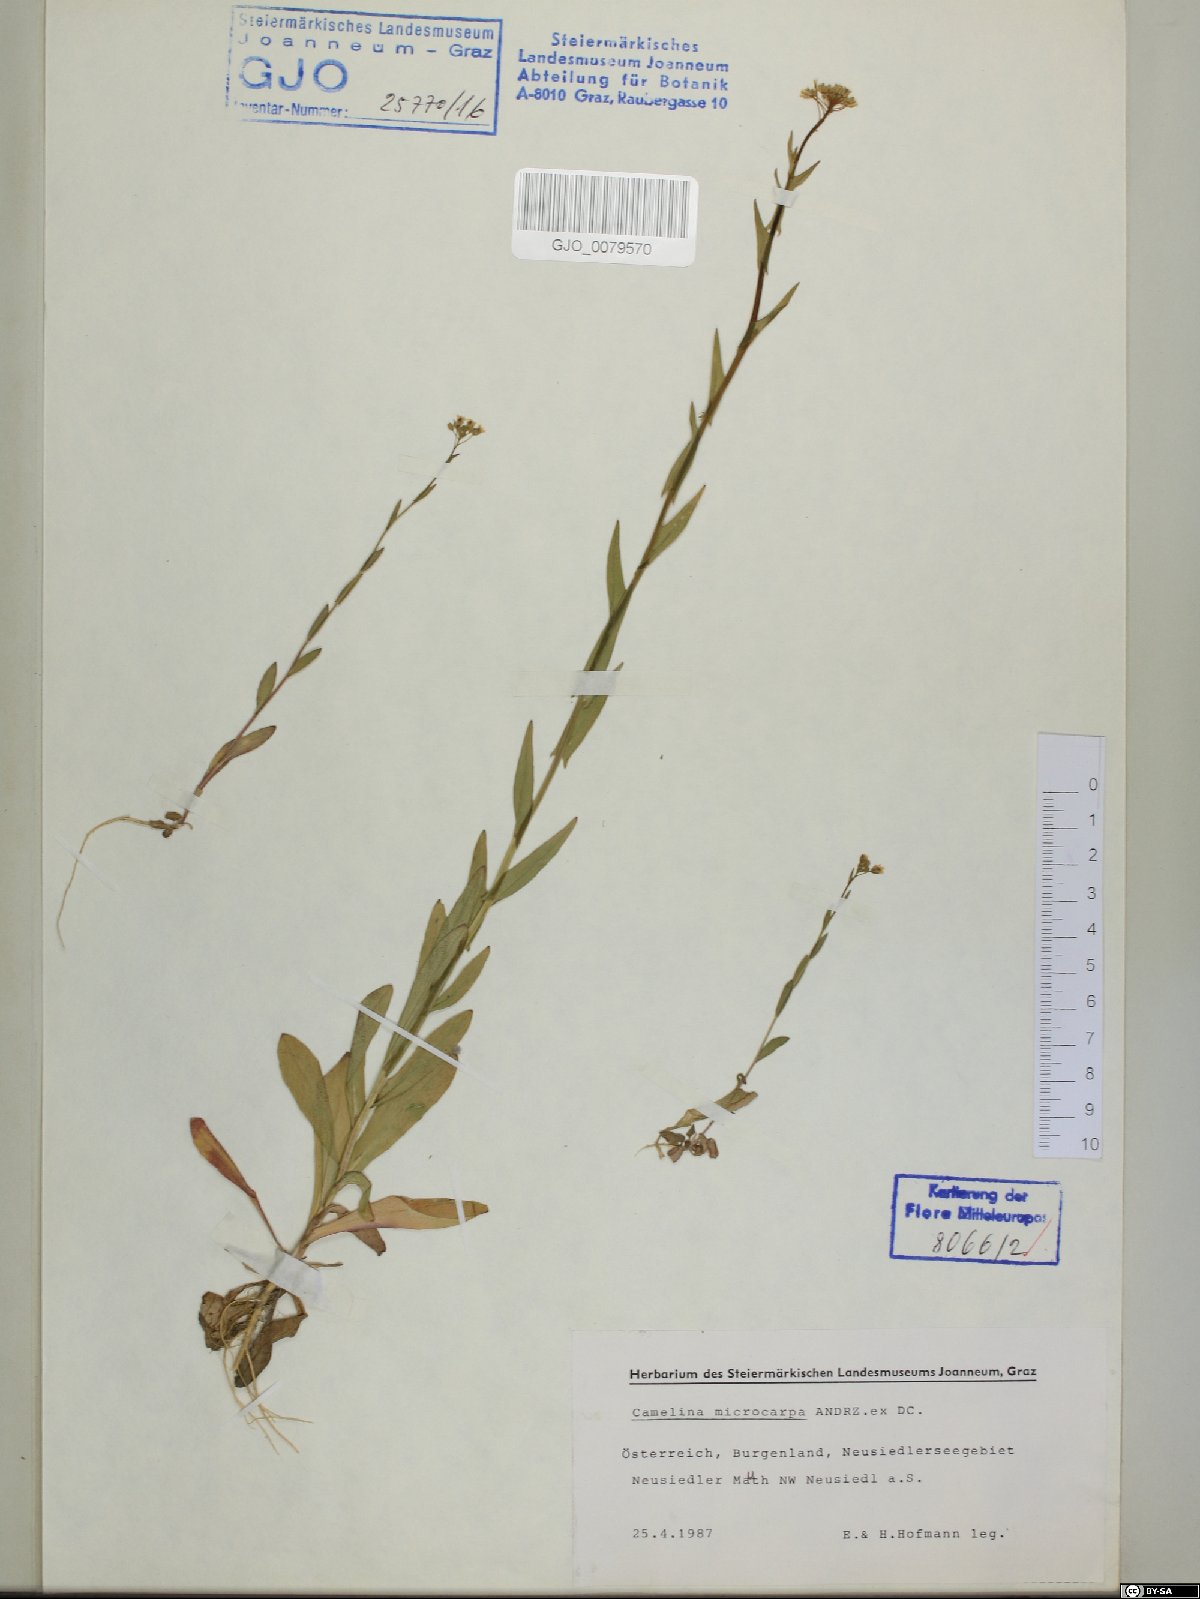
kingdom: Plantae
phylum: Tracheophyta
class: Magnoliopsida
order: Brassicales
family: Brassicaceae
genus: Camelina
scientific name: Camelina microcarpa
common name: Lesser gold-of-pleasure
